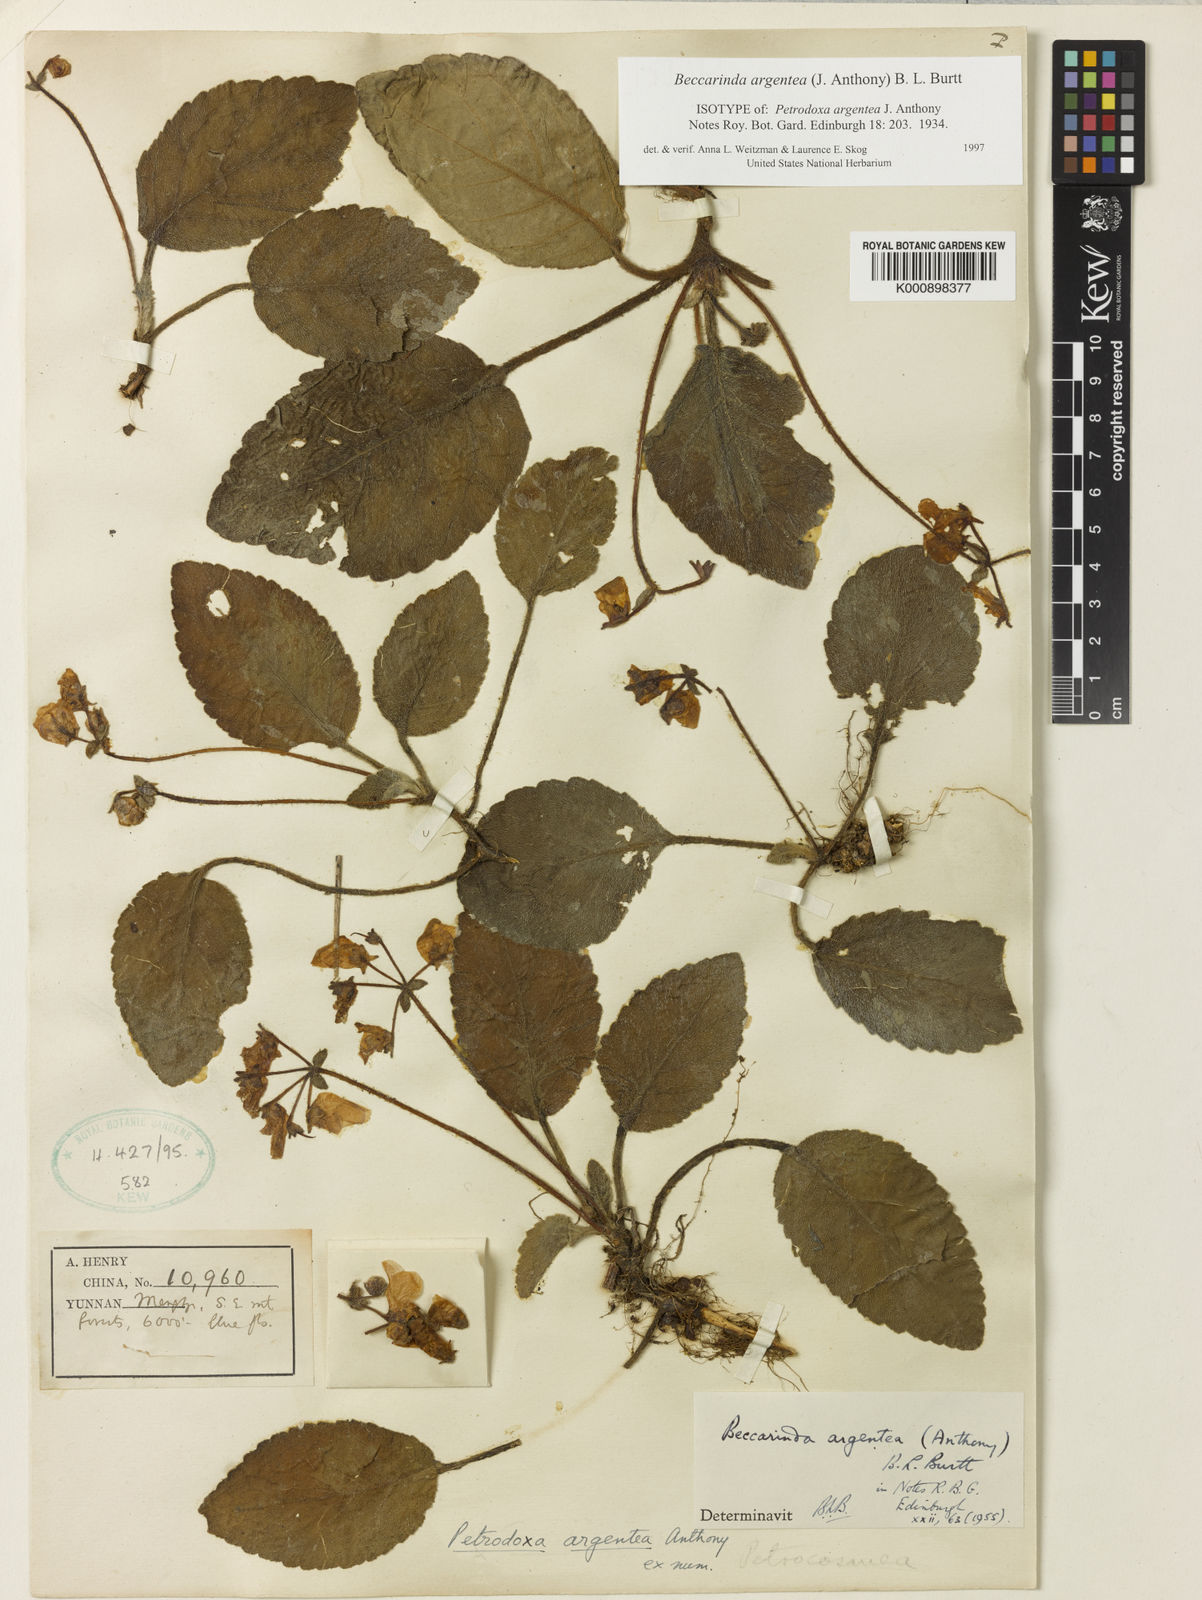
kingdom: Plantae
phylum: Tracheophyta
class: Magnoliopsida
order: Lamiales
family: Gesneriaceae
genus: Beccarinda
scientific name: Beccarinda argentea
